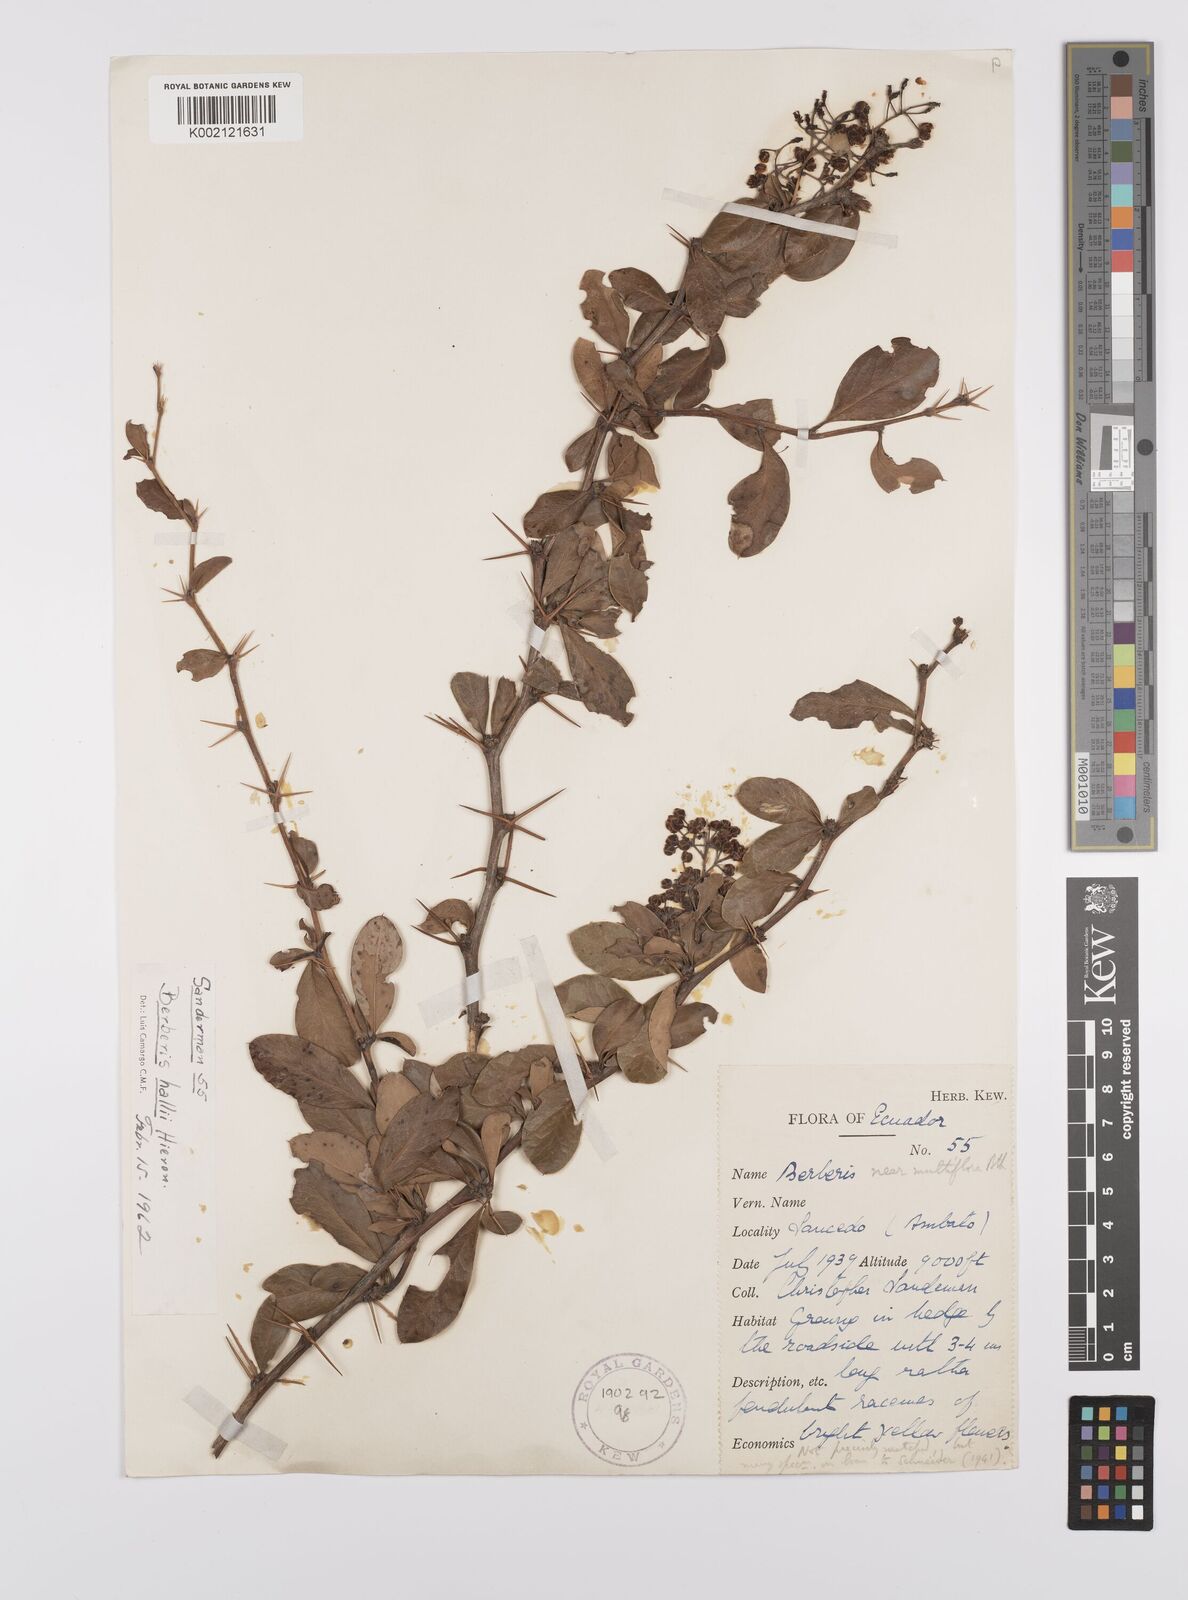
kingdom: Plantae
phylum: Tracheophyta
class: Magnoliopsida
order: Ranunculales
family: Berberidaceae
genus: Berberis
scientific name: Berberis hallii
